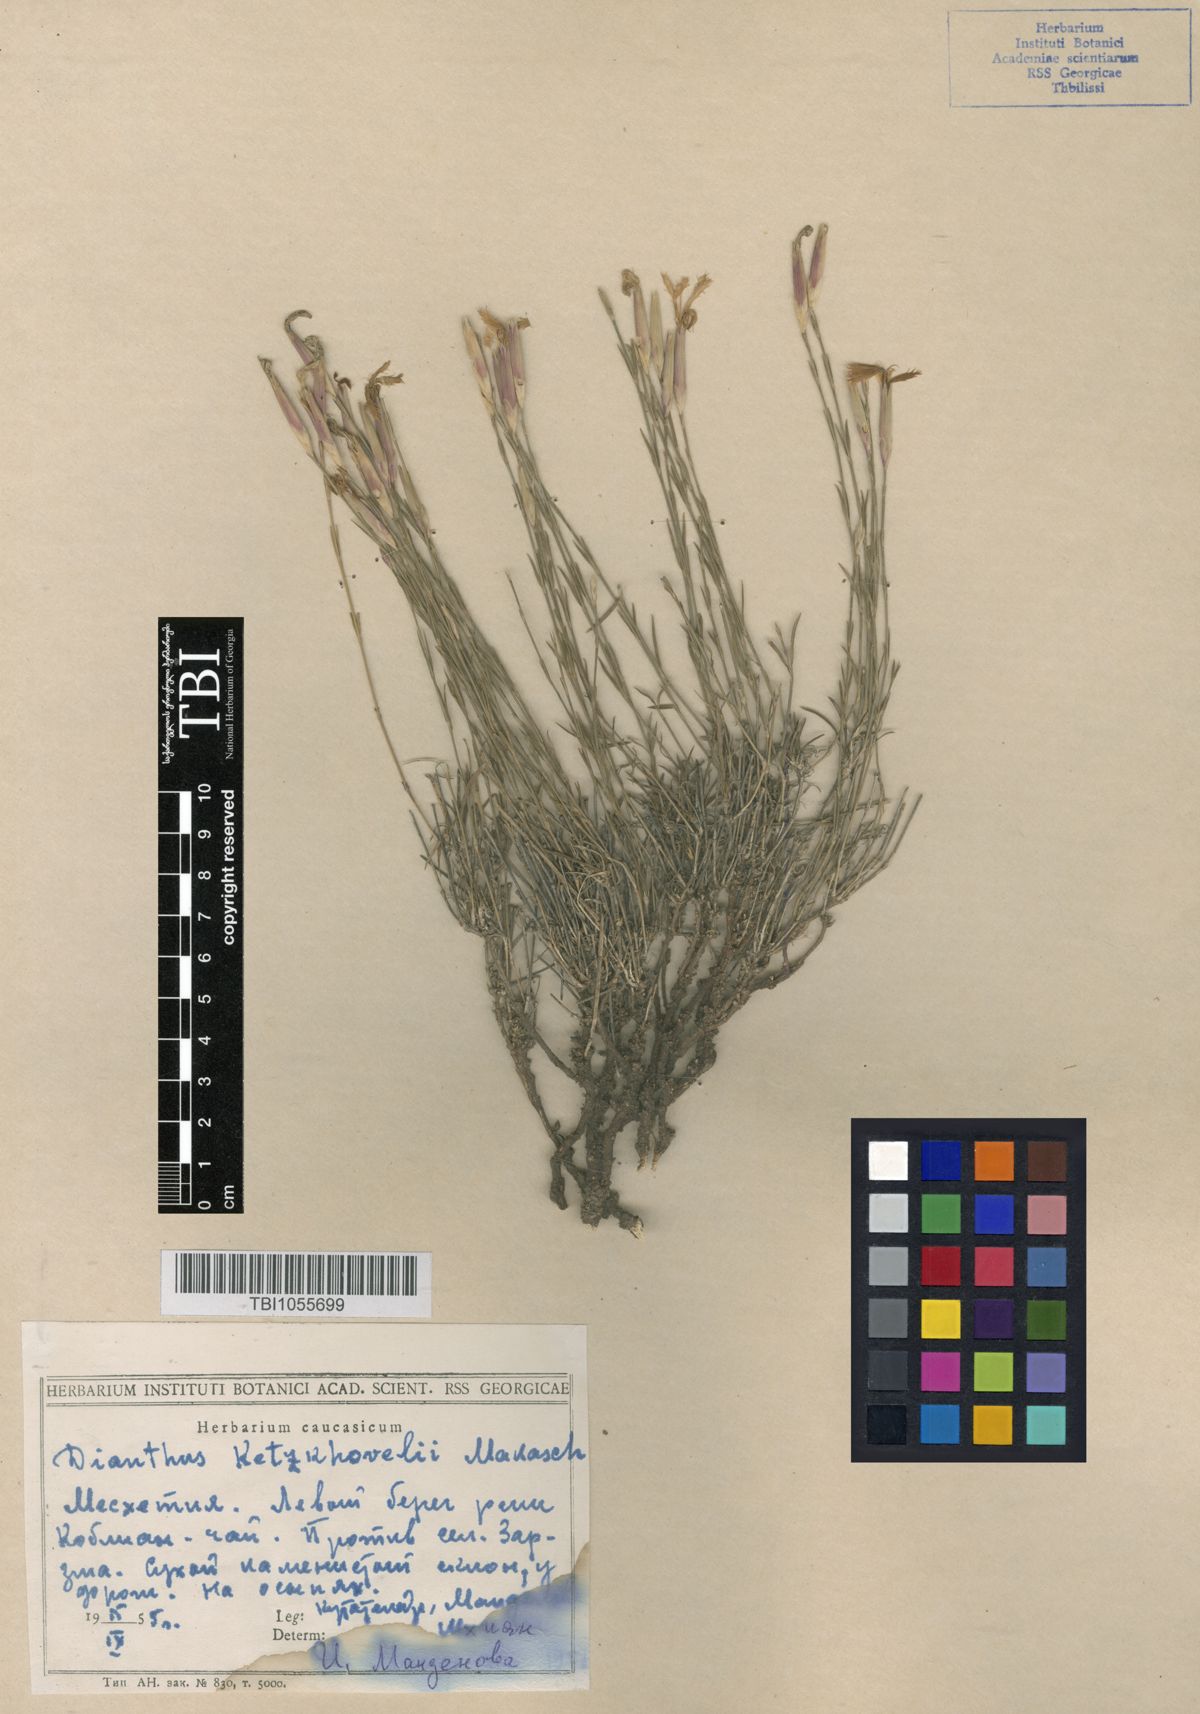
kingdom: Plantae
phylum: Tracheophyta
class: Magnoliopsida
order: Caryophyllales
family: Caryophyllaceae
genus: Dianthus
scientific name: Dianthus orientalis
